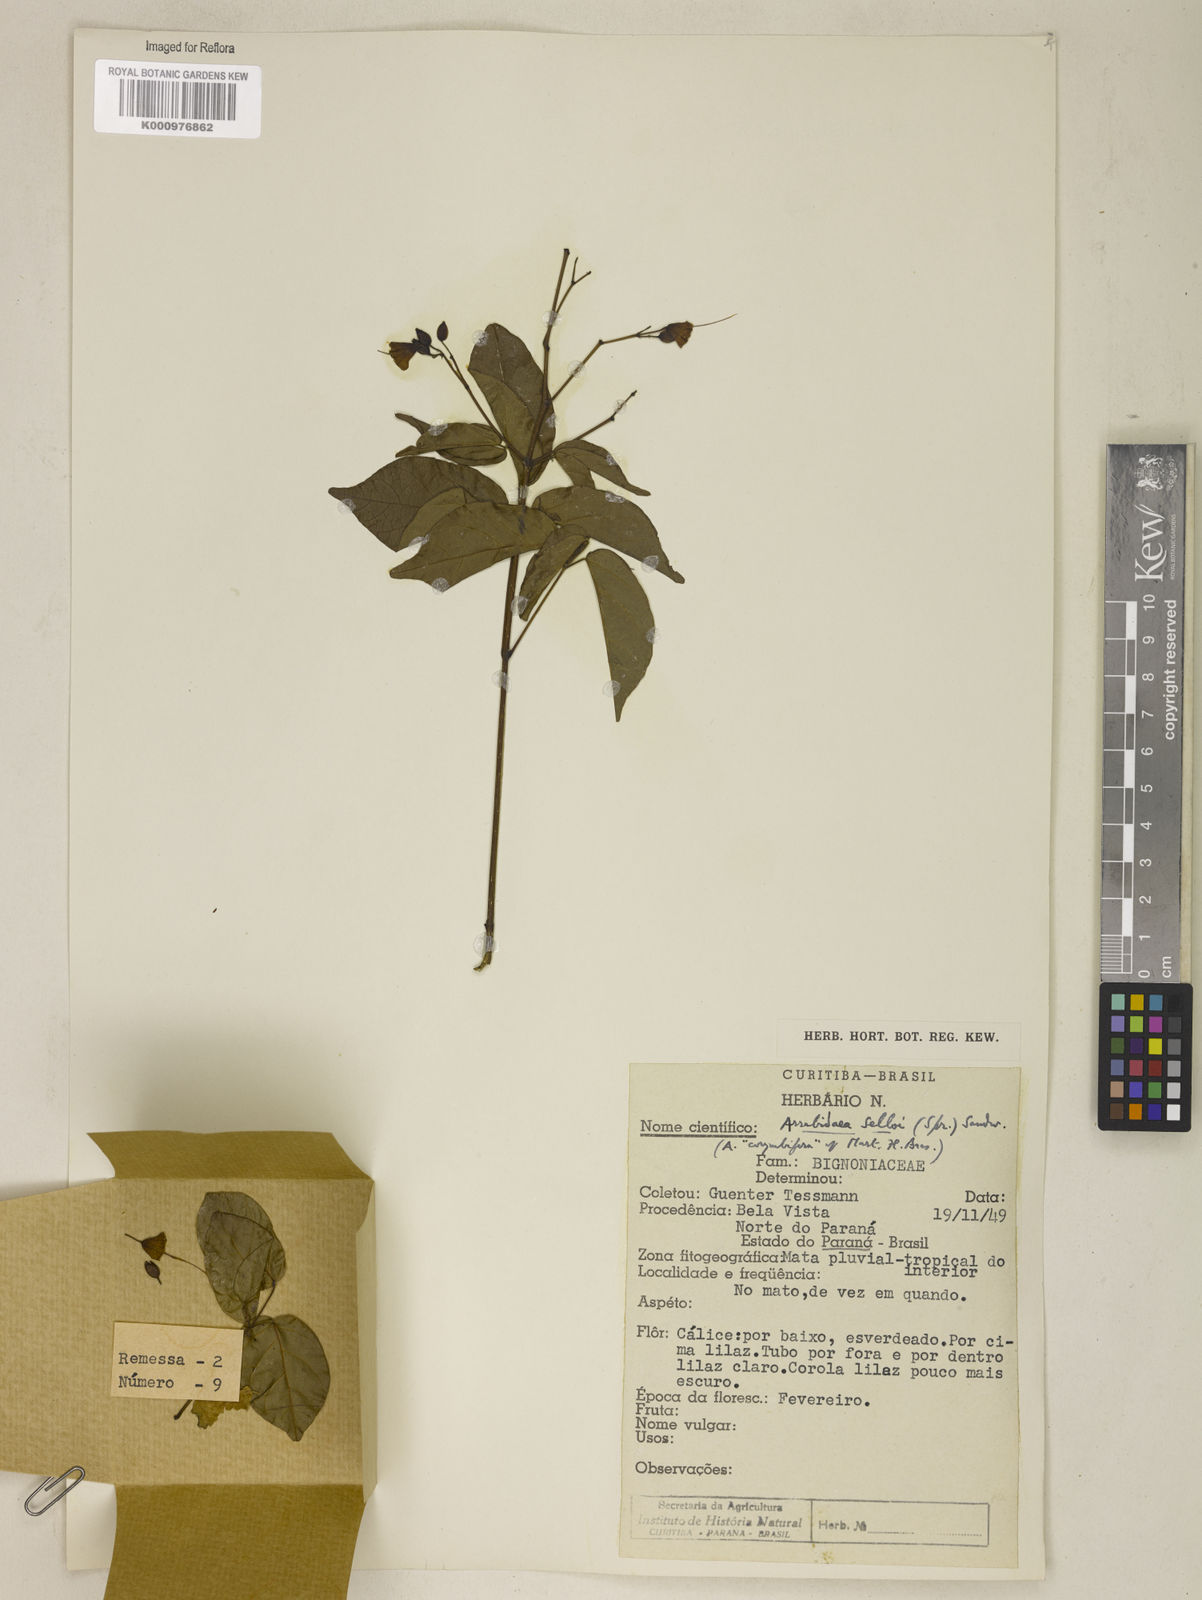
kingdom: Plantae
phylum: Tracheophyta
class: Magnoliopsida
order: Lamiales
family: Bignoniaceae
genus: Tanaecium
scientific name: Tanaecium selloi
